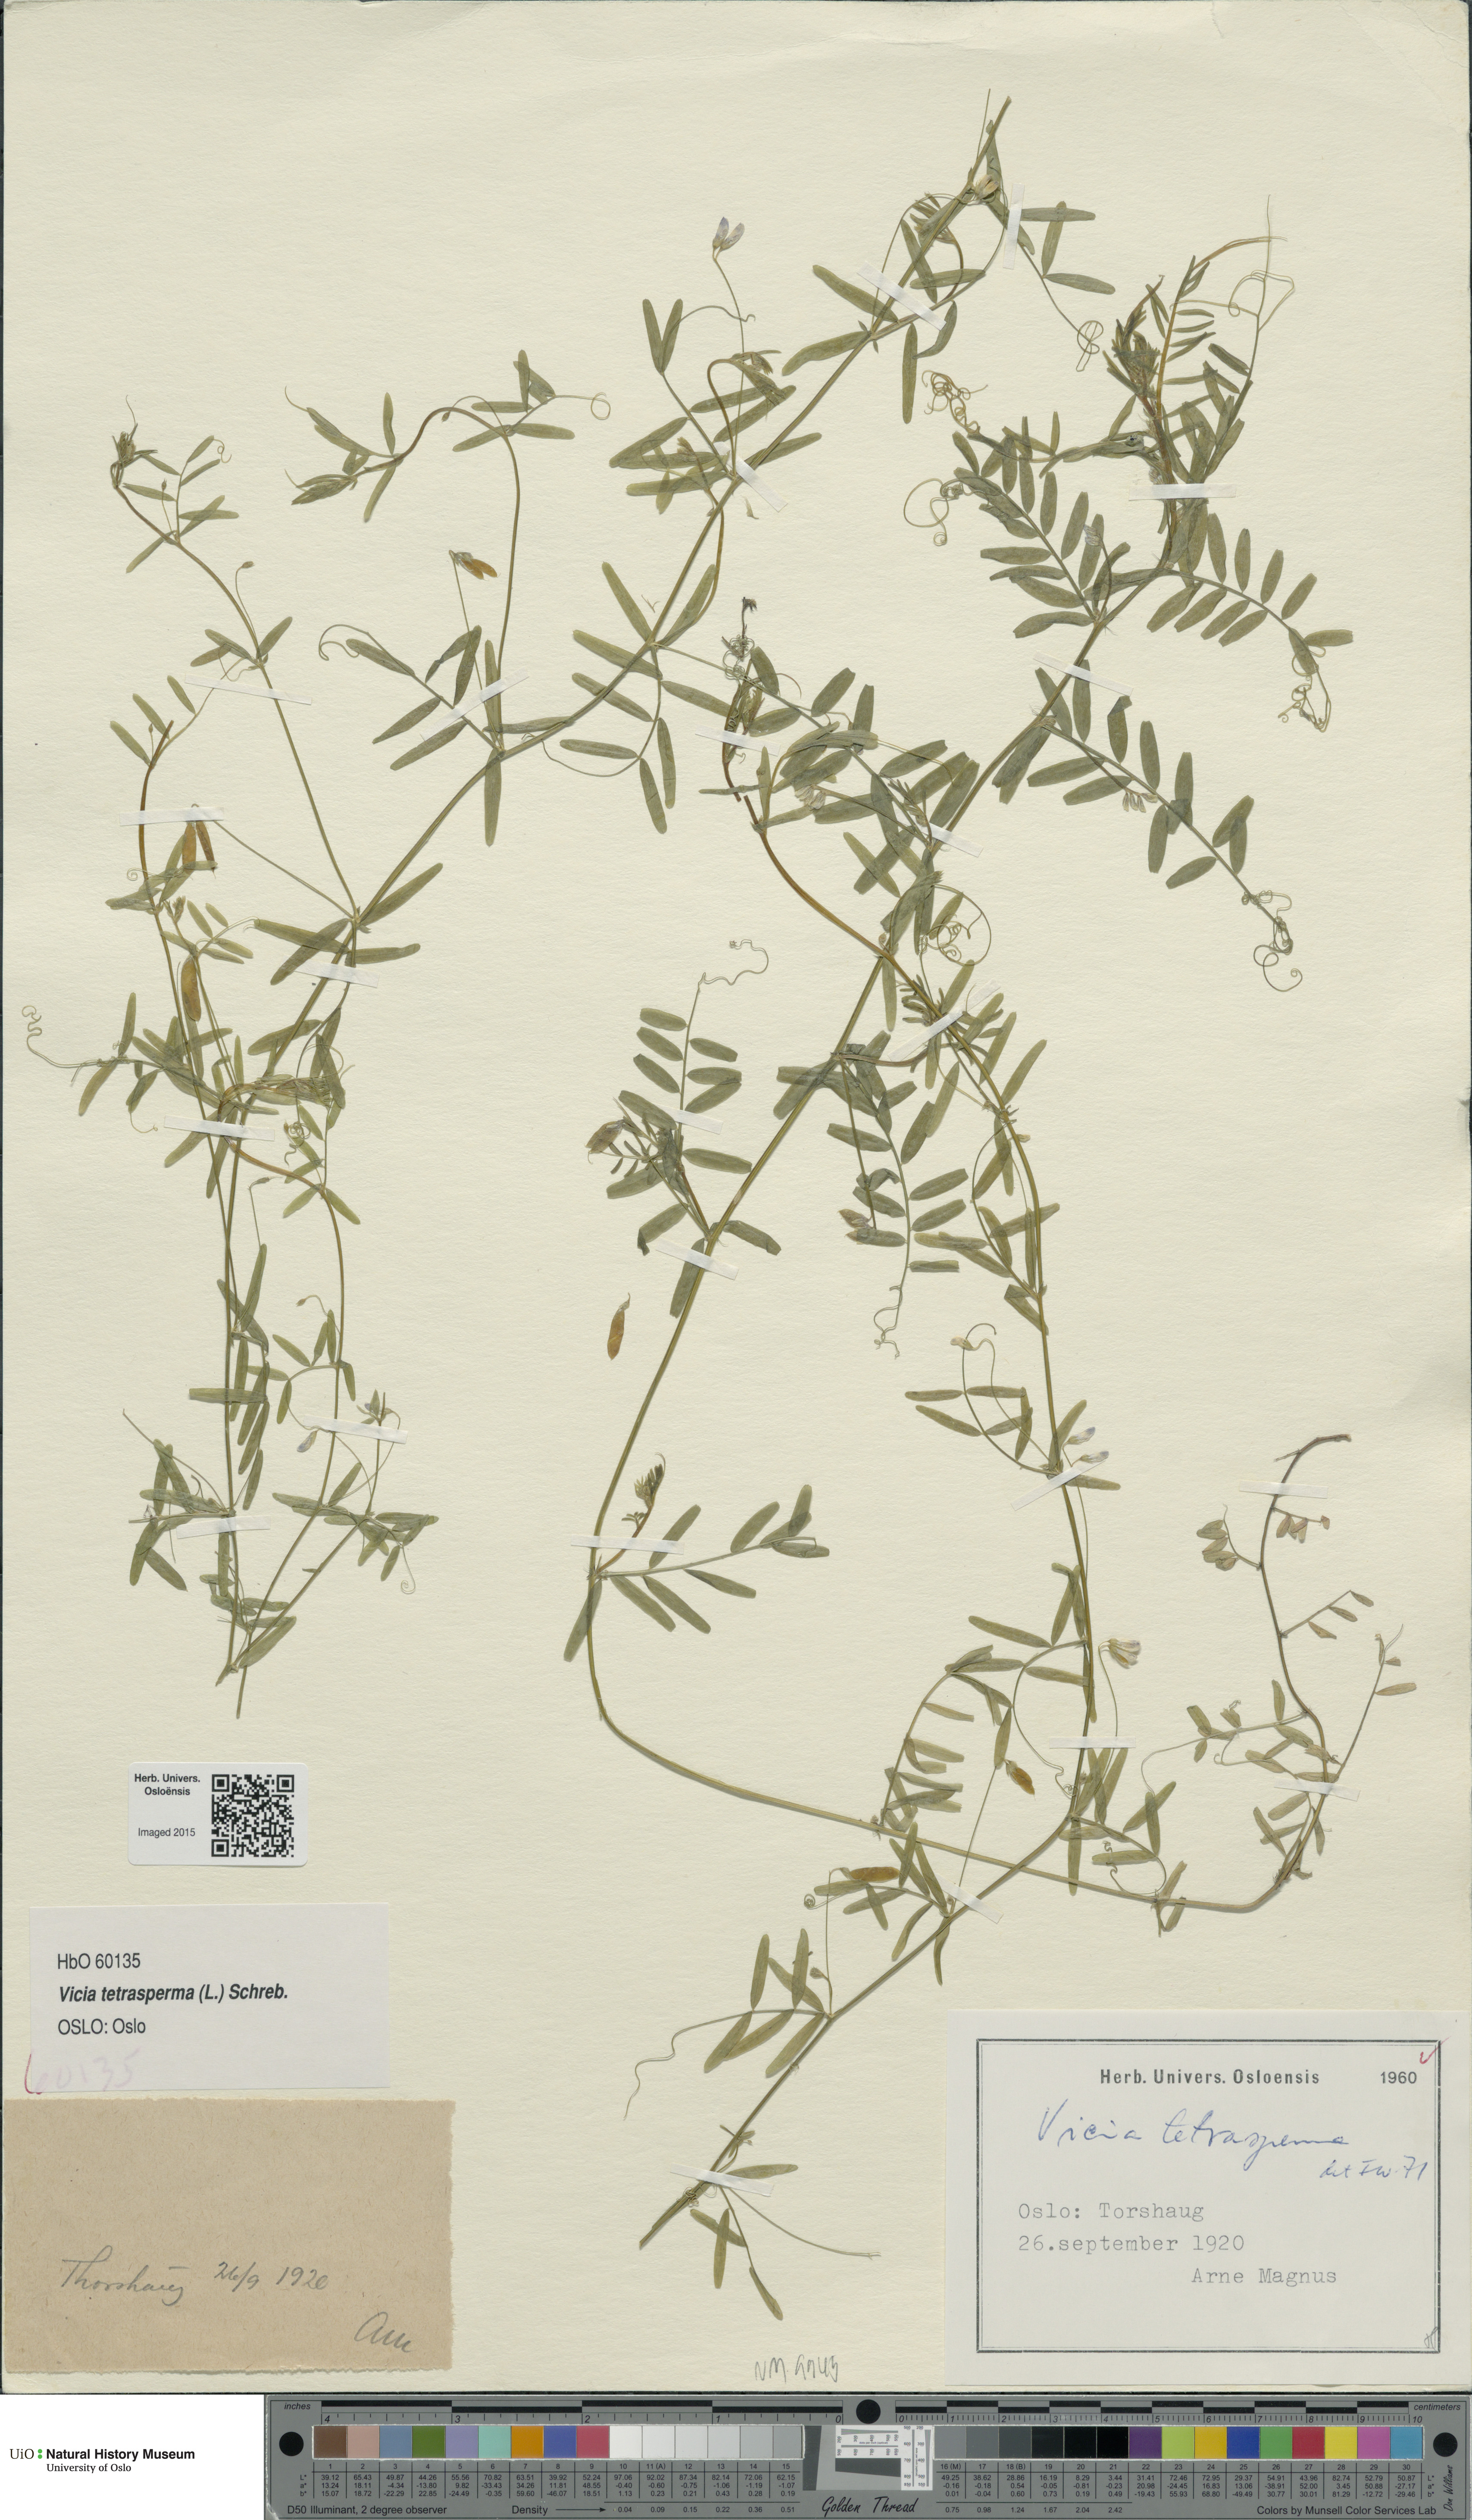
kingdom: Plantae
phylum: Tracheophyta
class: Magnoliopsida
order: Fabales
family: Fabaceae
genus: Vicia
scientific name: Vicia tetrasperma
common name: Smooth tare
